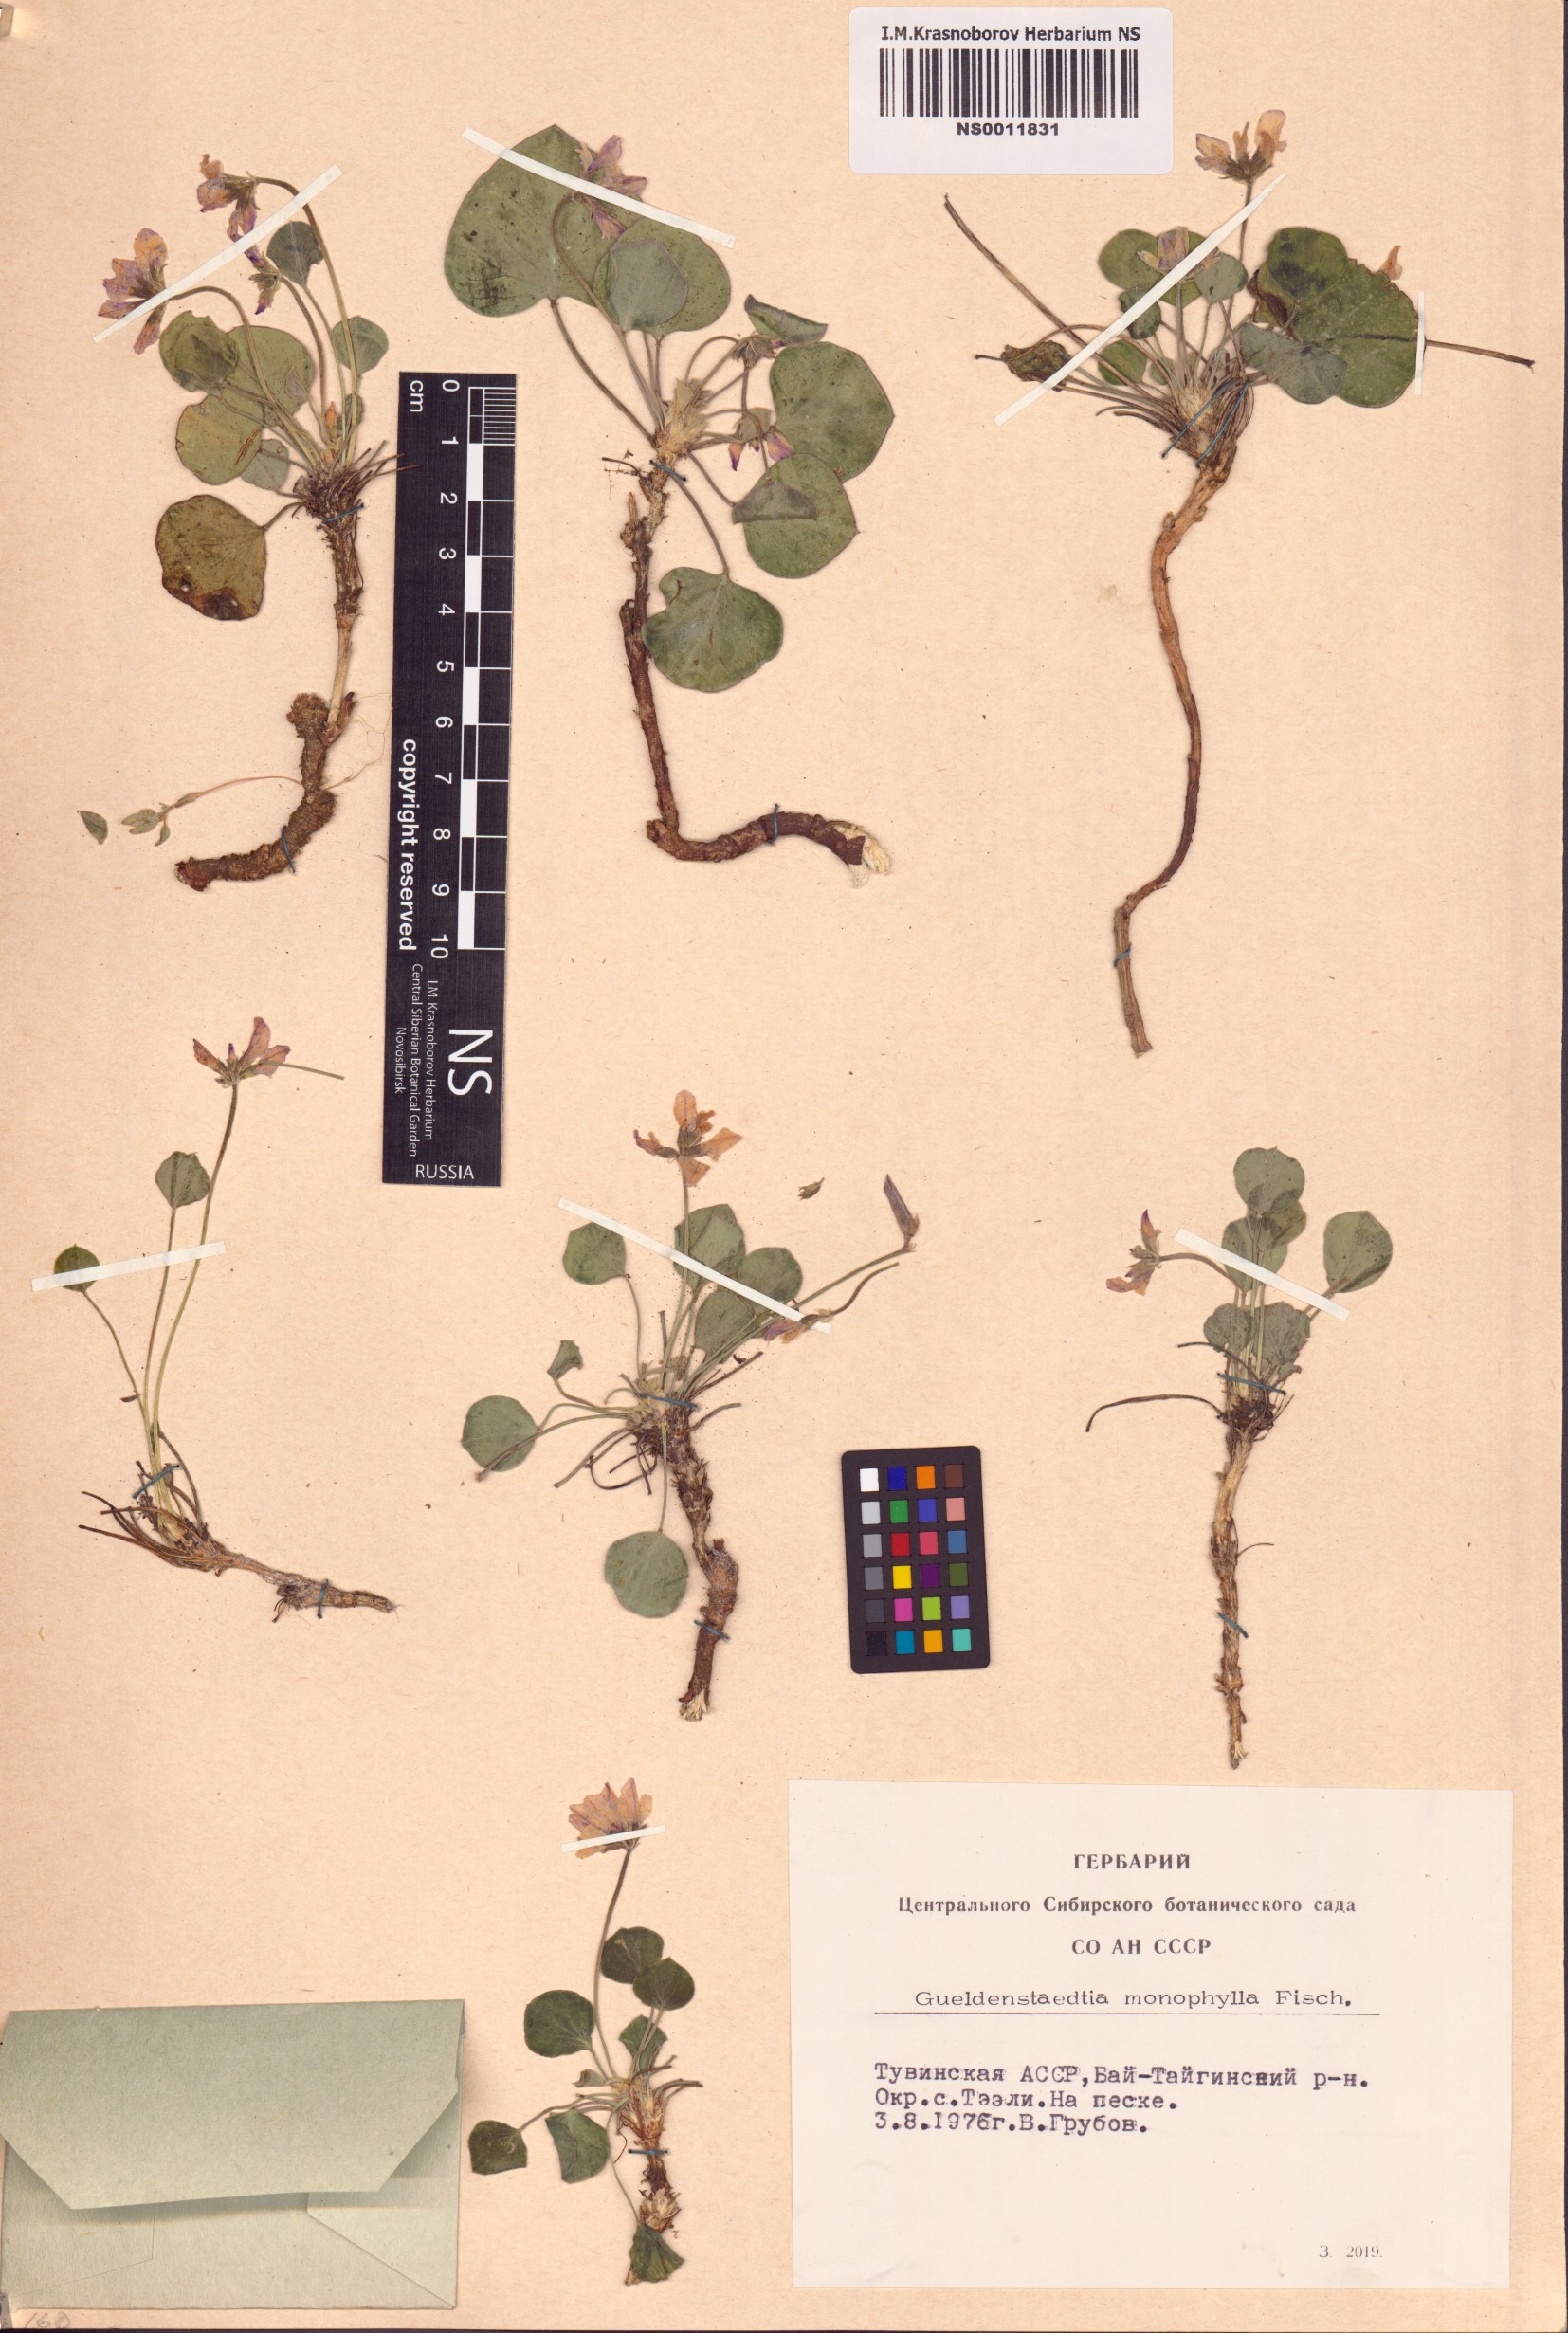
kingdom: Plantae
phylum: Tracheophyta
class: Magnoliopsida
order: Fabales
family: Fabaceae
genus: Gueldenstaedtia
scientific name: Gueldenstaedtia monophylla
